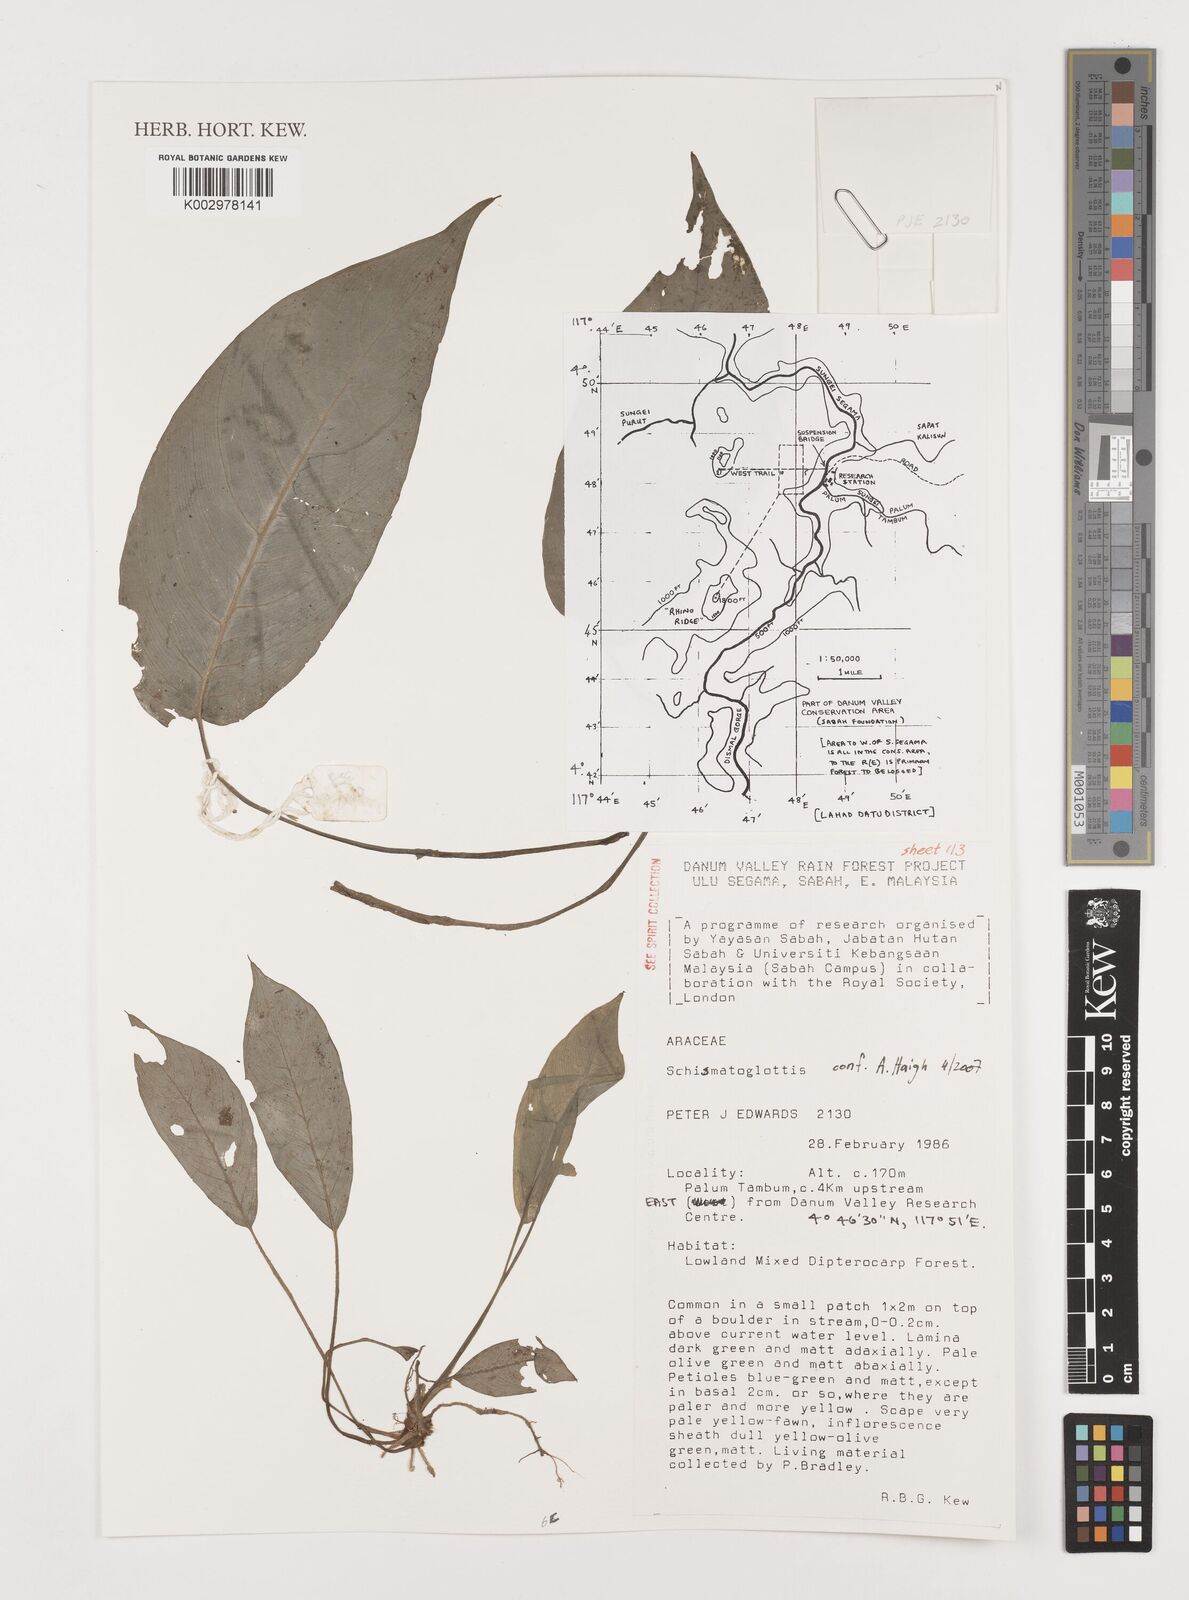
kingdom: Plantae
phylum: Tracheophyta
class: Liliopsida
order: Alismatales
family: Araceae
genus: Schismatoglottis
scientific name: Schismatoglottis
